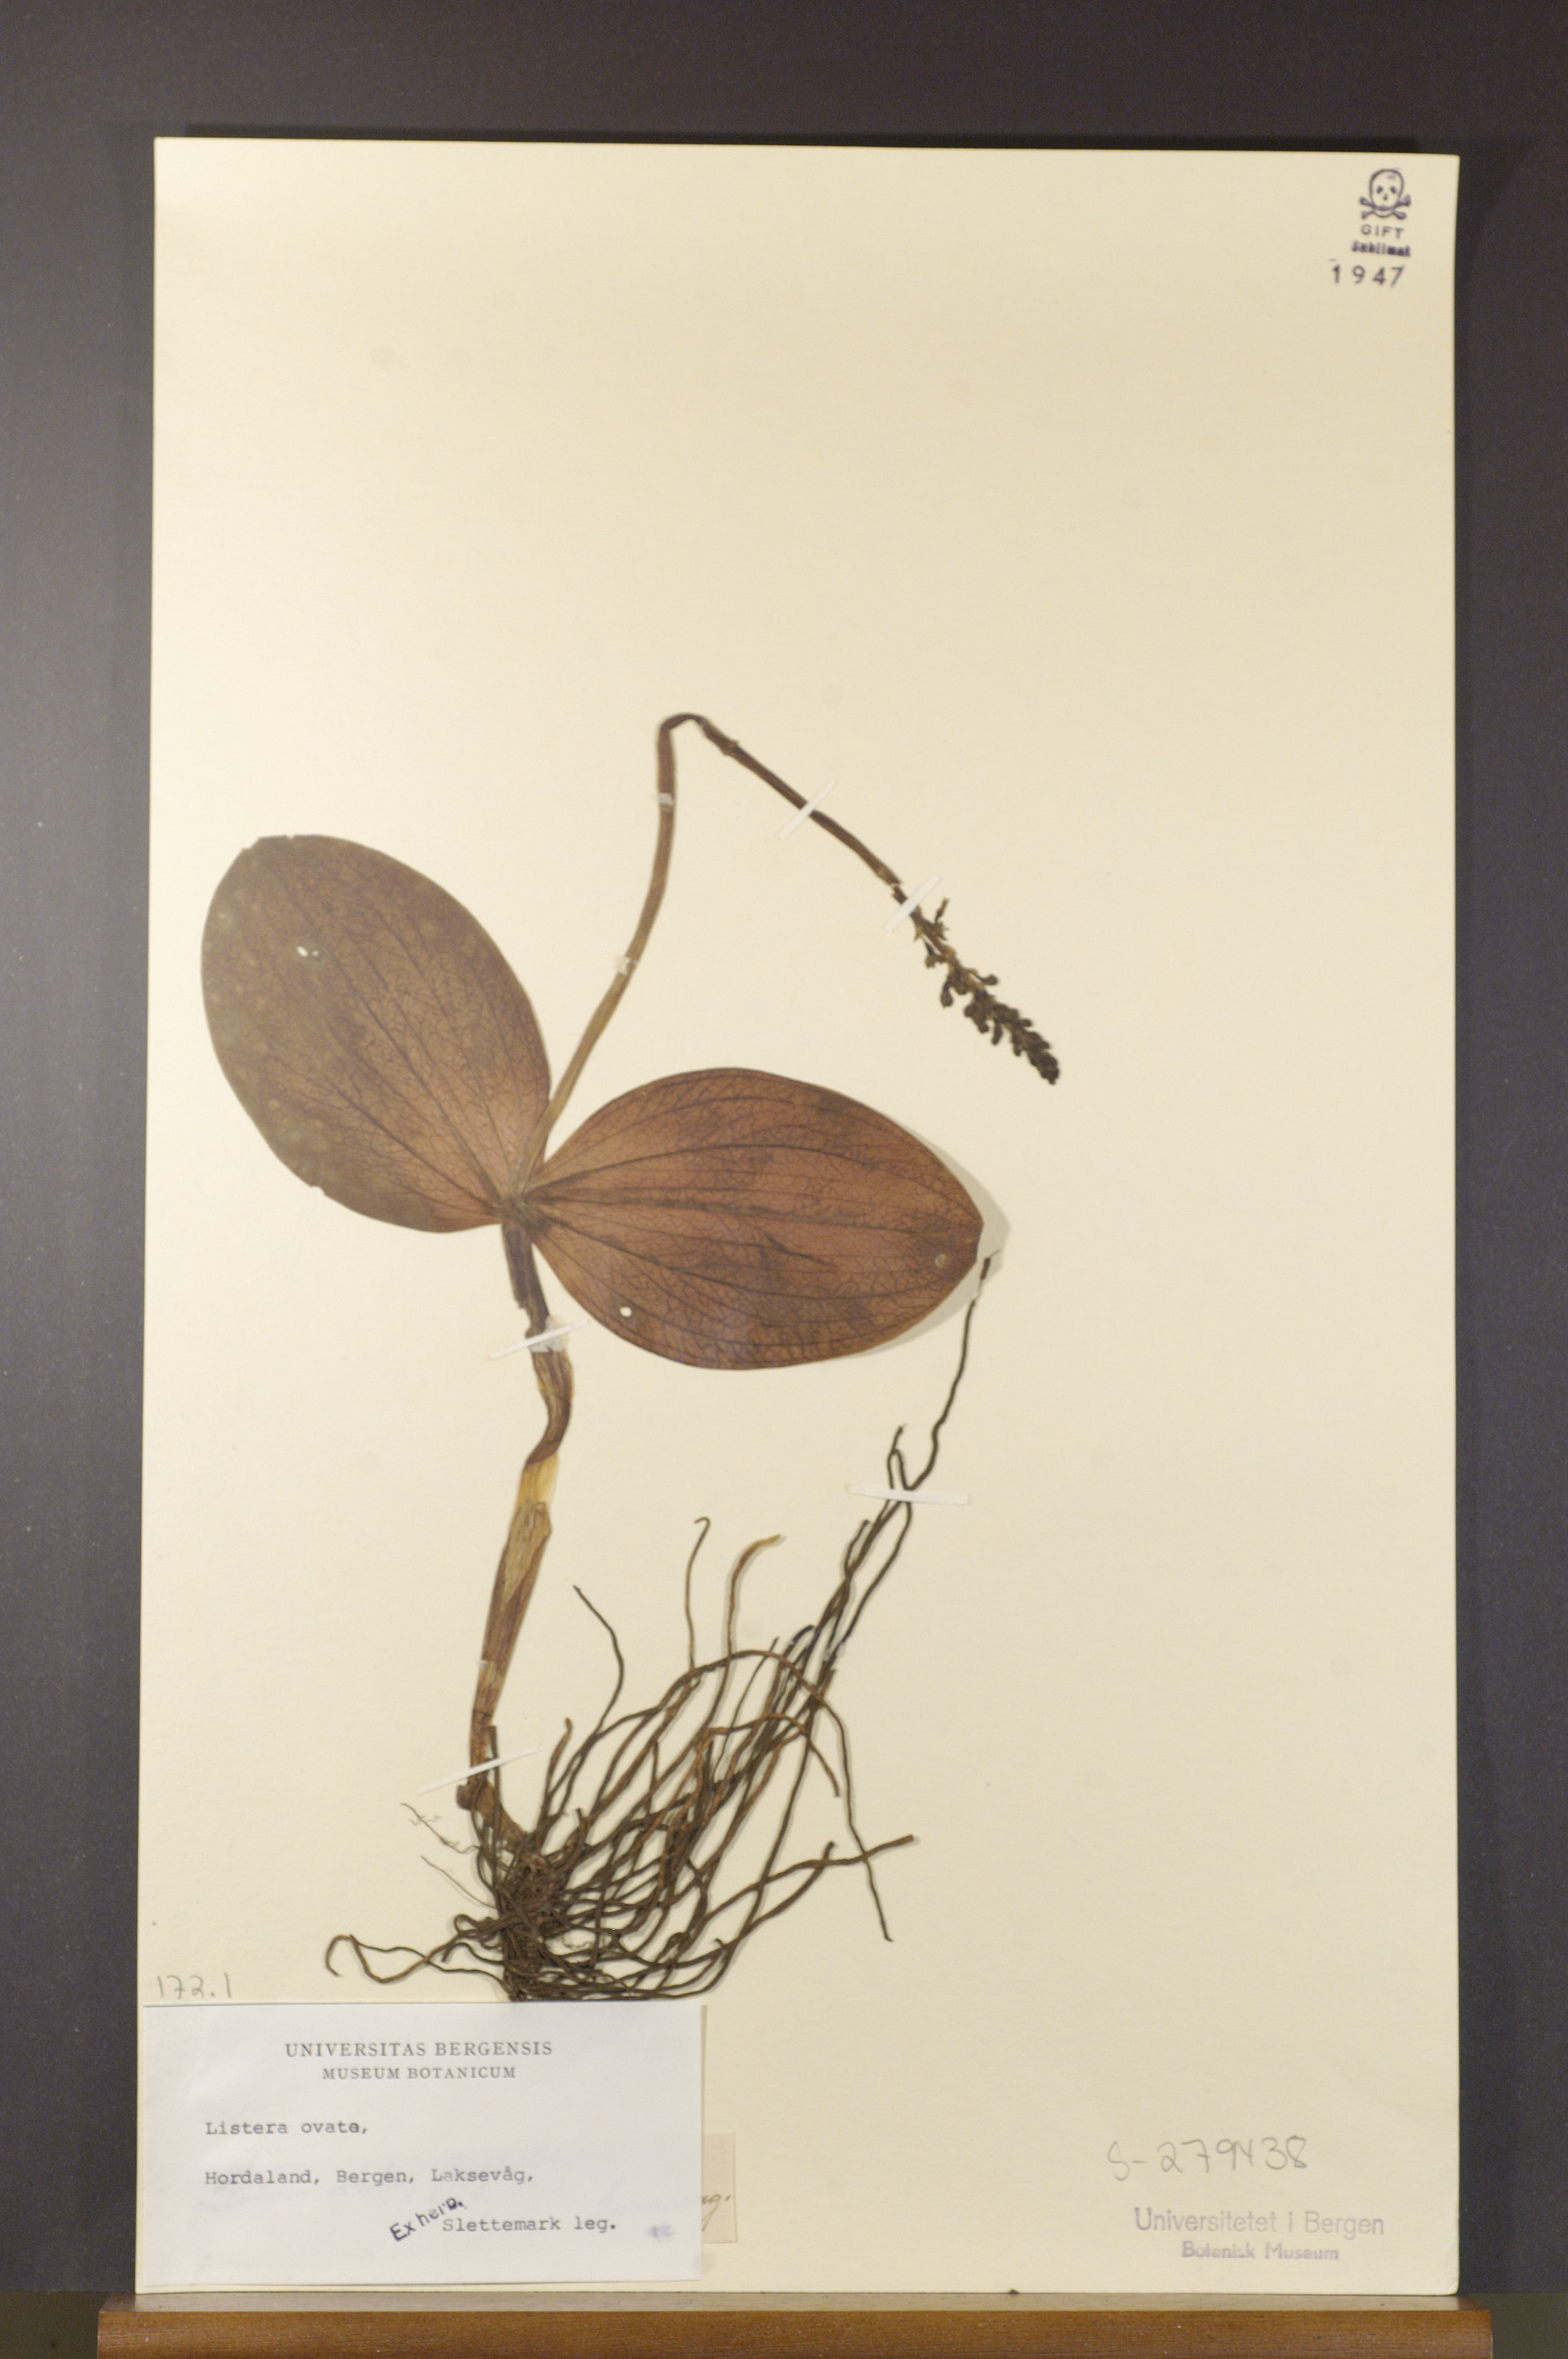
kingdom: Plantae
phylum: Tracheophyta
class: Liliopsida
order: Asparagales
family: Orchidaceae
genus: Neottia
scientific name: Neottia ovata
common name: Common twayblade
